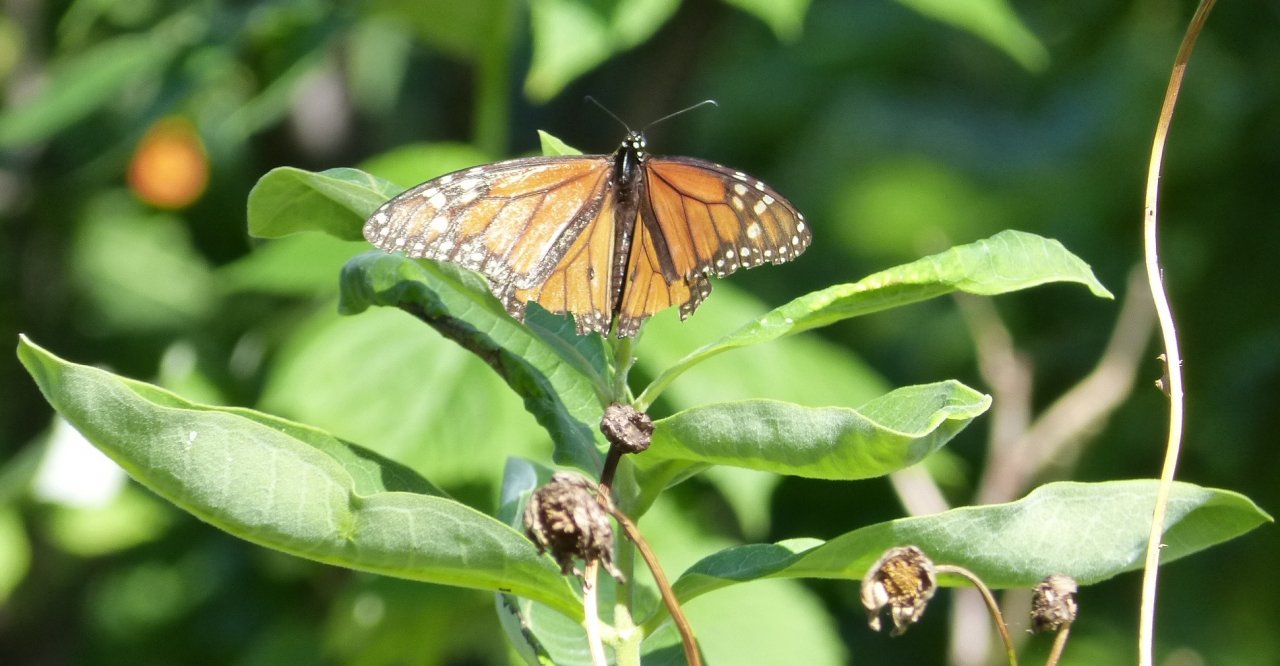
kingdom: Animalia
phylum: Arthropoda
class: Insecta
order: Lepidoptera
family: Nymphalidae
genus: Danaus
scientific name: Danaus plexippus
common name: Monarch
